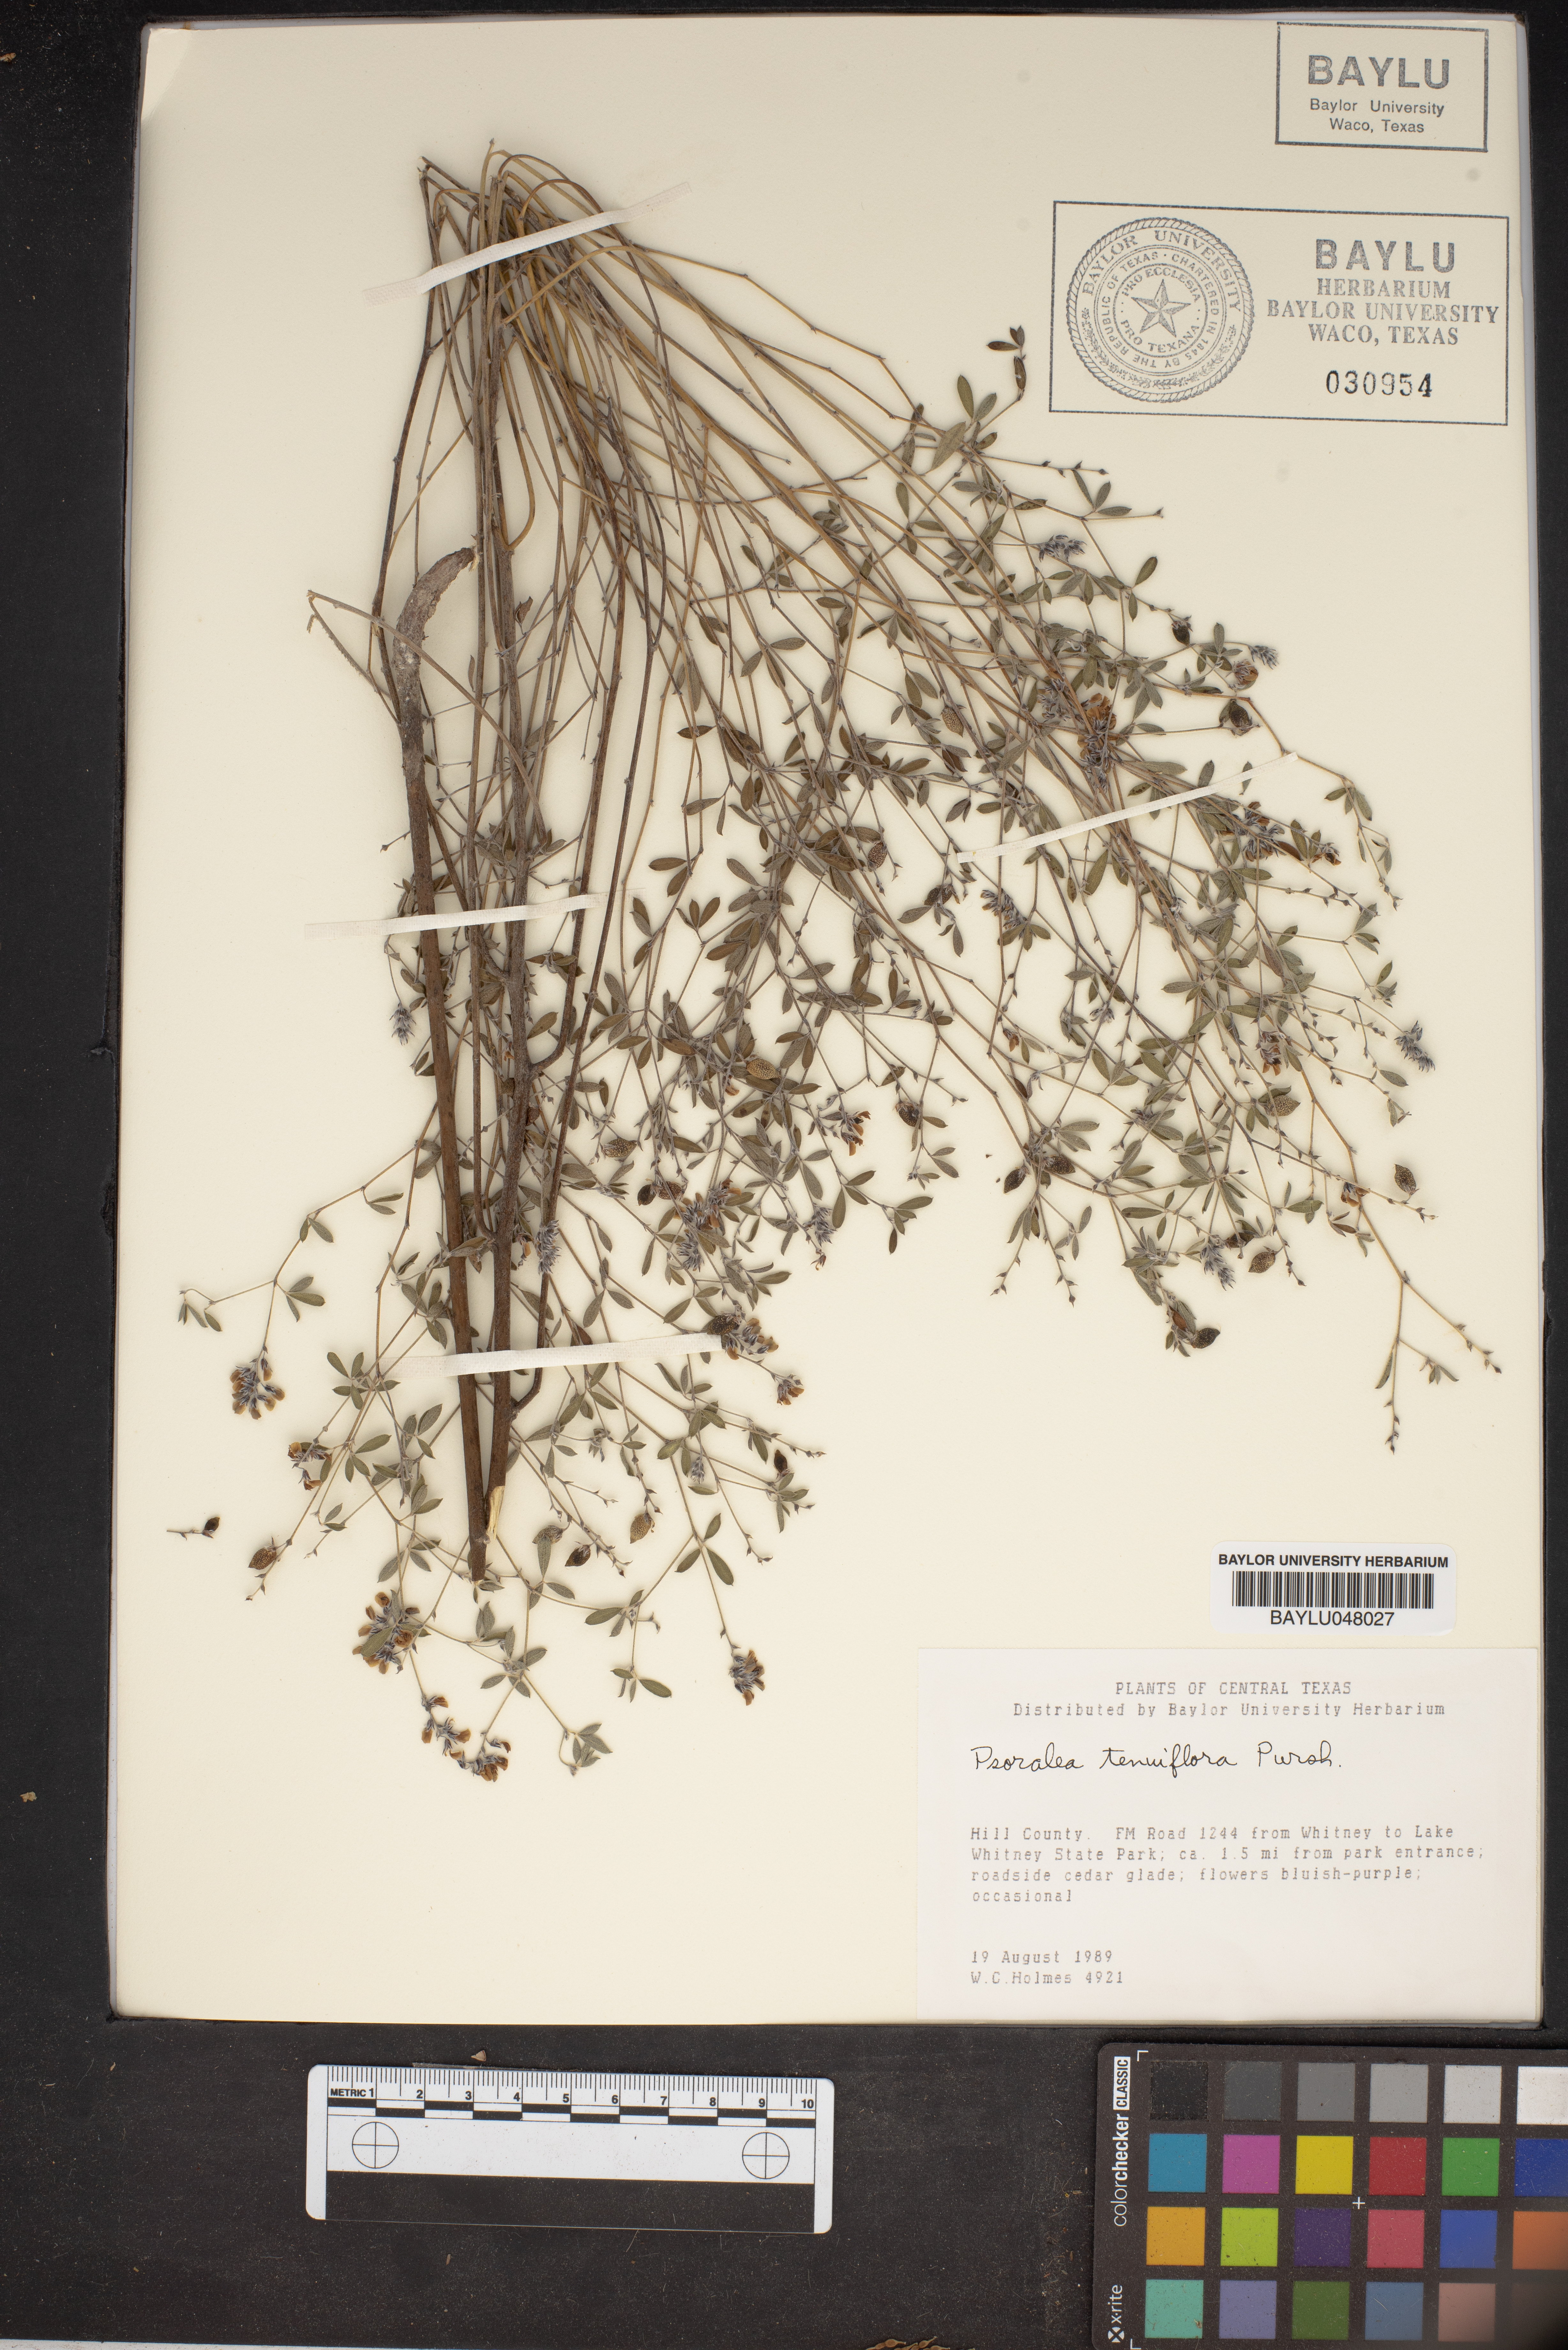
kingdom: Plantae
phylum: Tracheophyta
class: Magnoliopsida
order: Fabales
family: Fabaceae
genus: Pediomelum
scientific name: Pediomelum tenuiflorum
